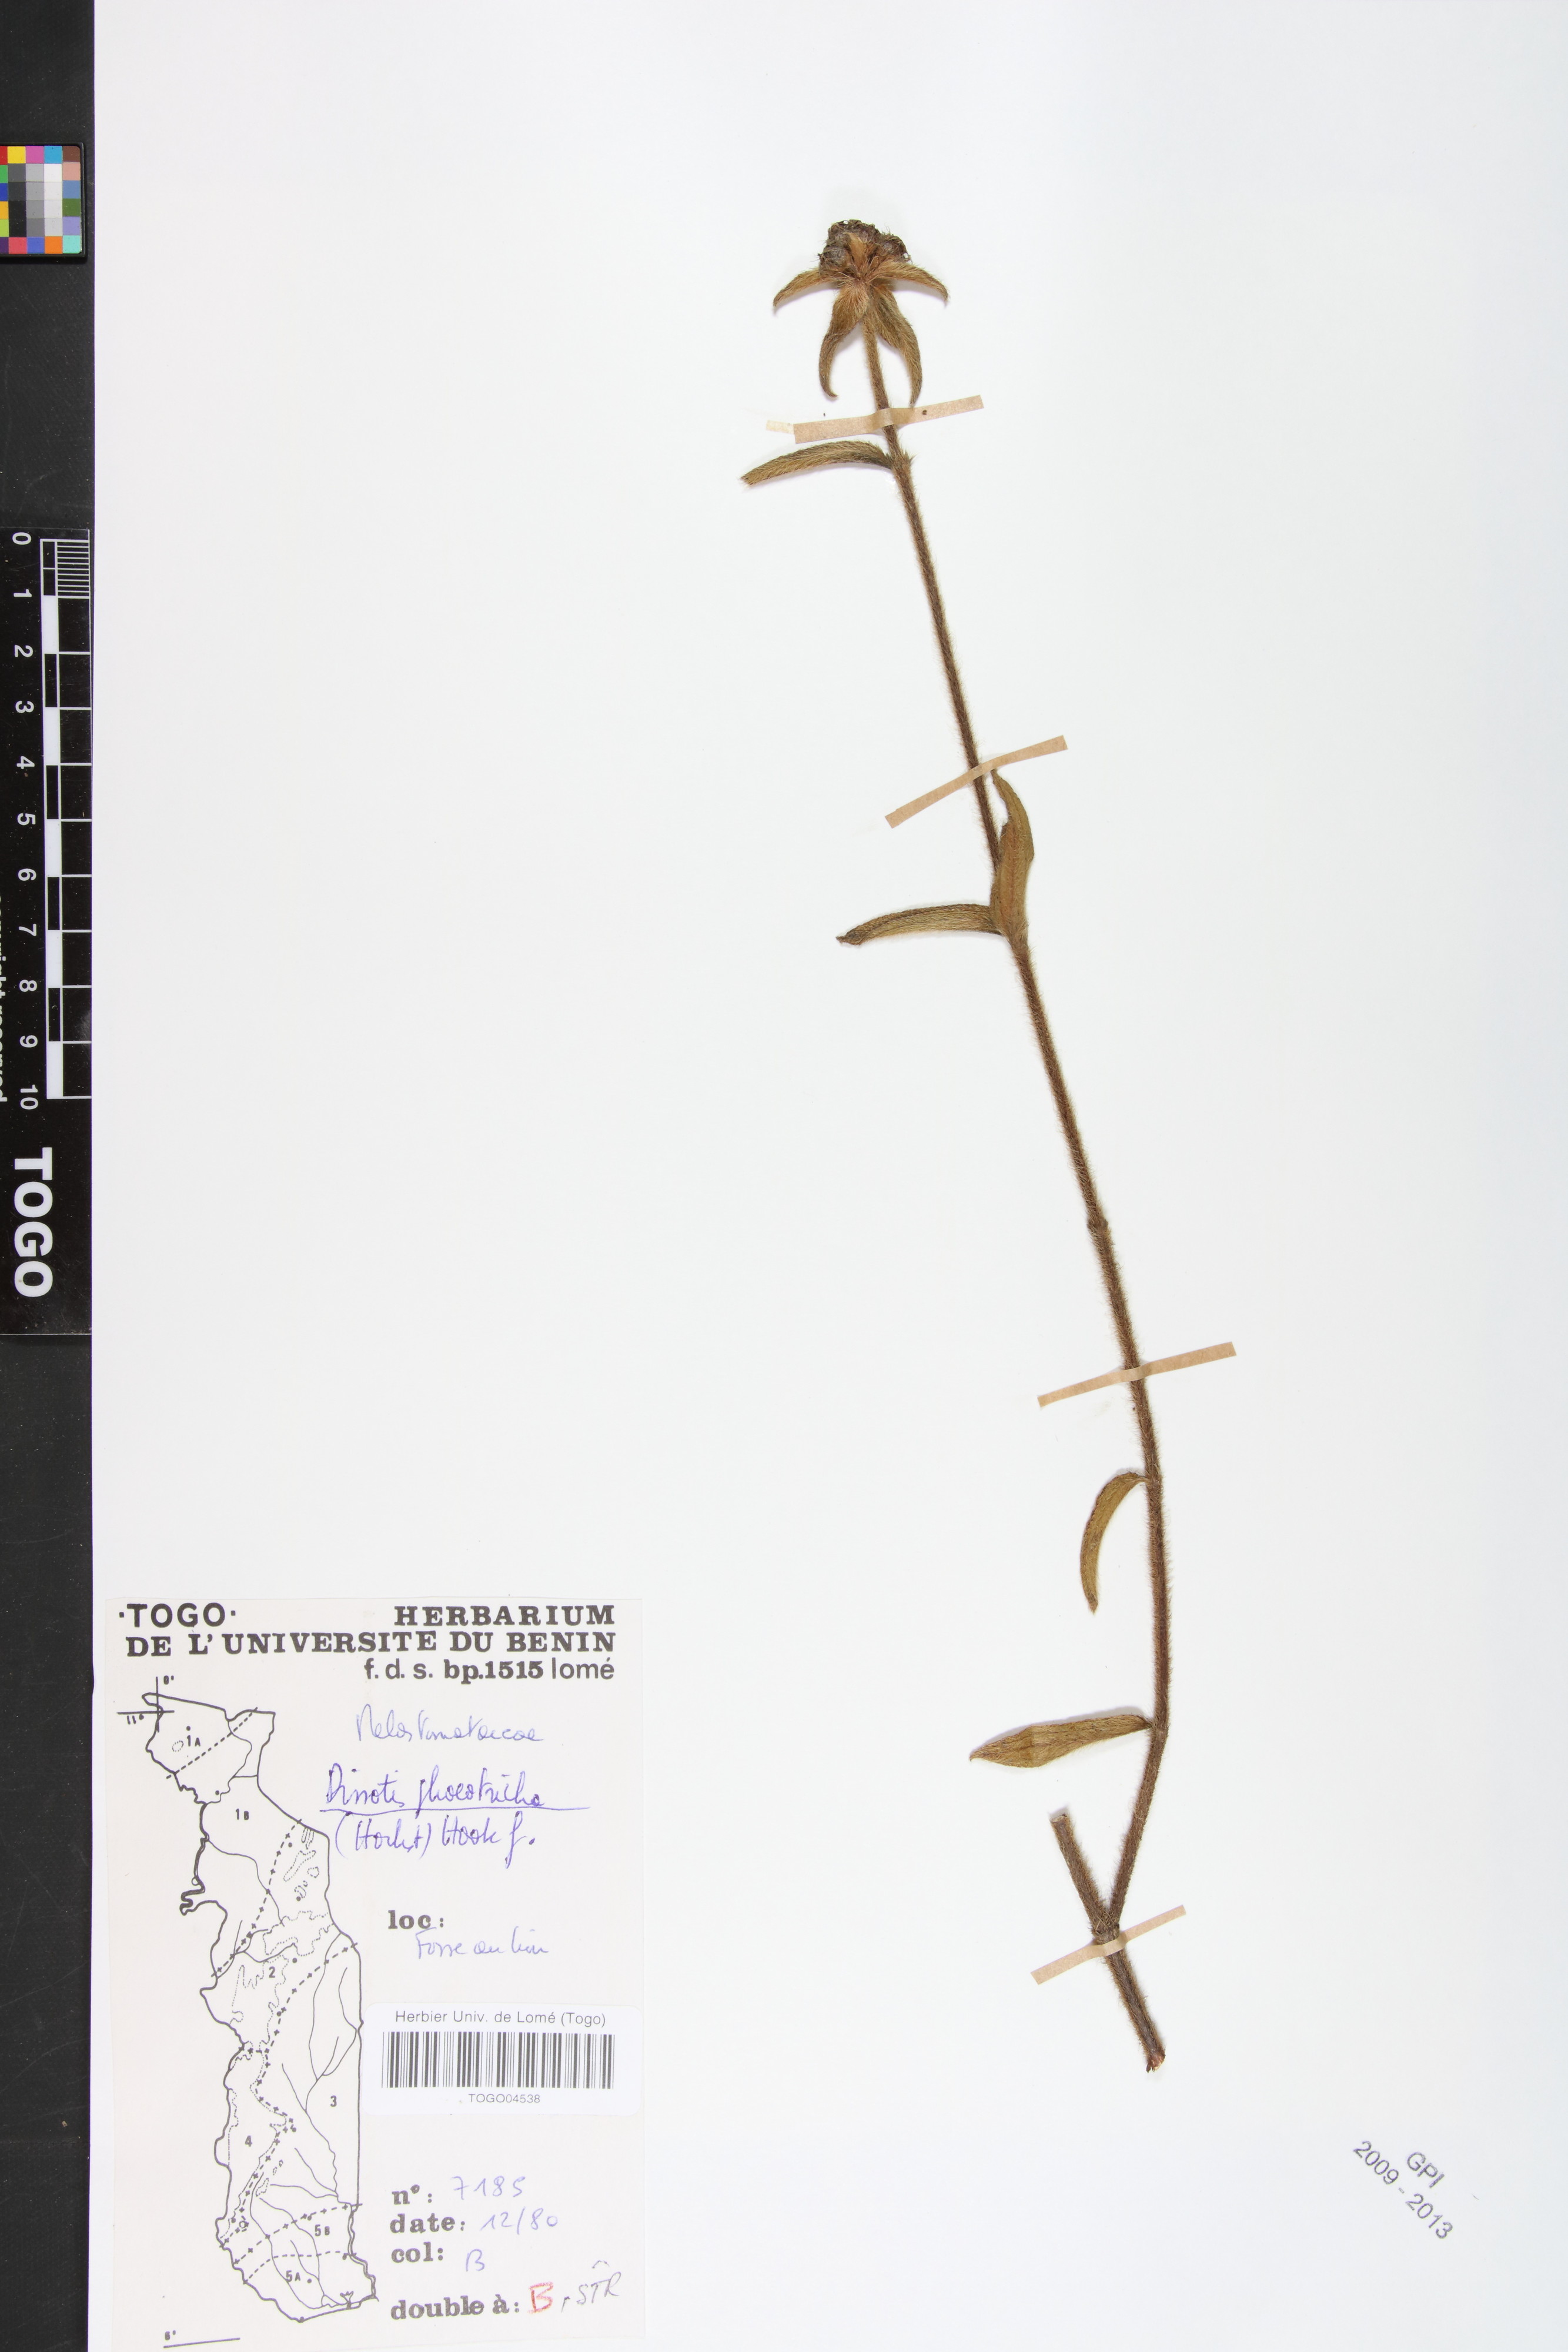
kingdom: Plantae
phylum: Tracheophyta
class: Magnoliopsida
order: Myrtales
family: Melastomataceae
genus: Antherotoma
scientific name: Antherotoma phaeotricha
